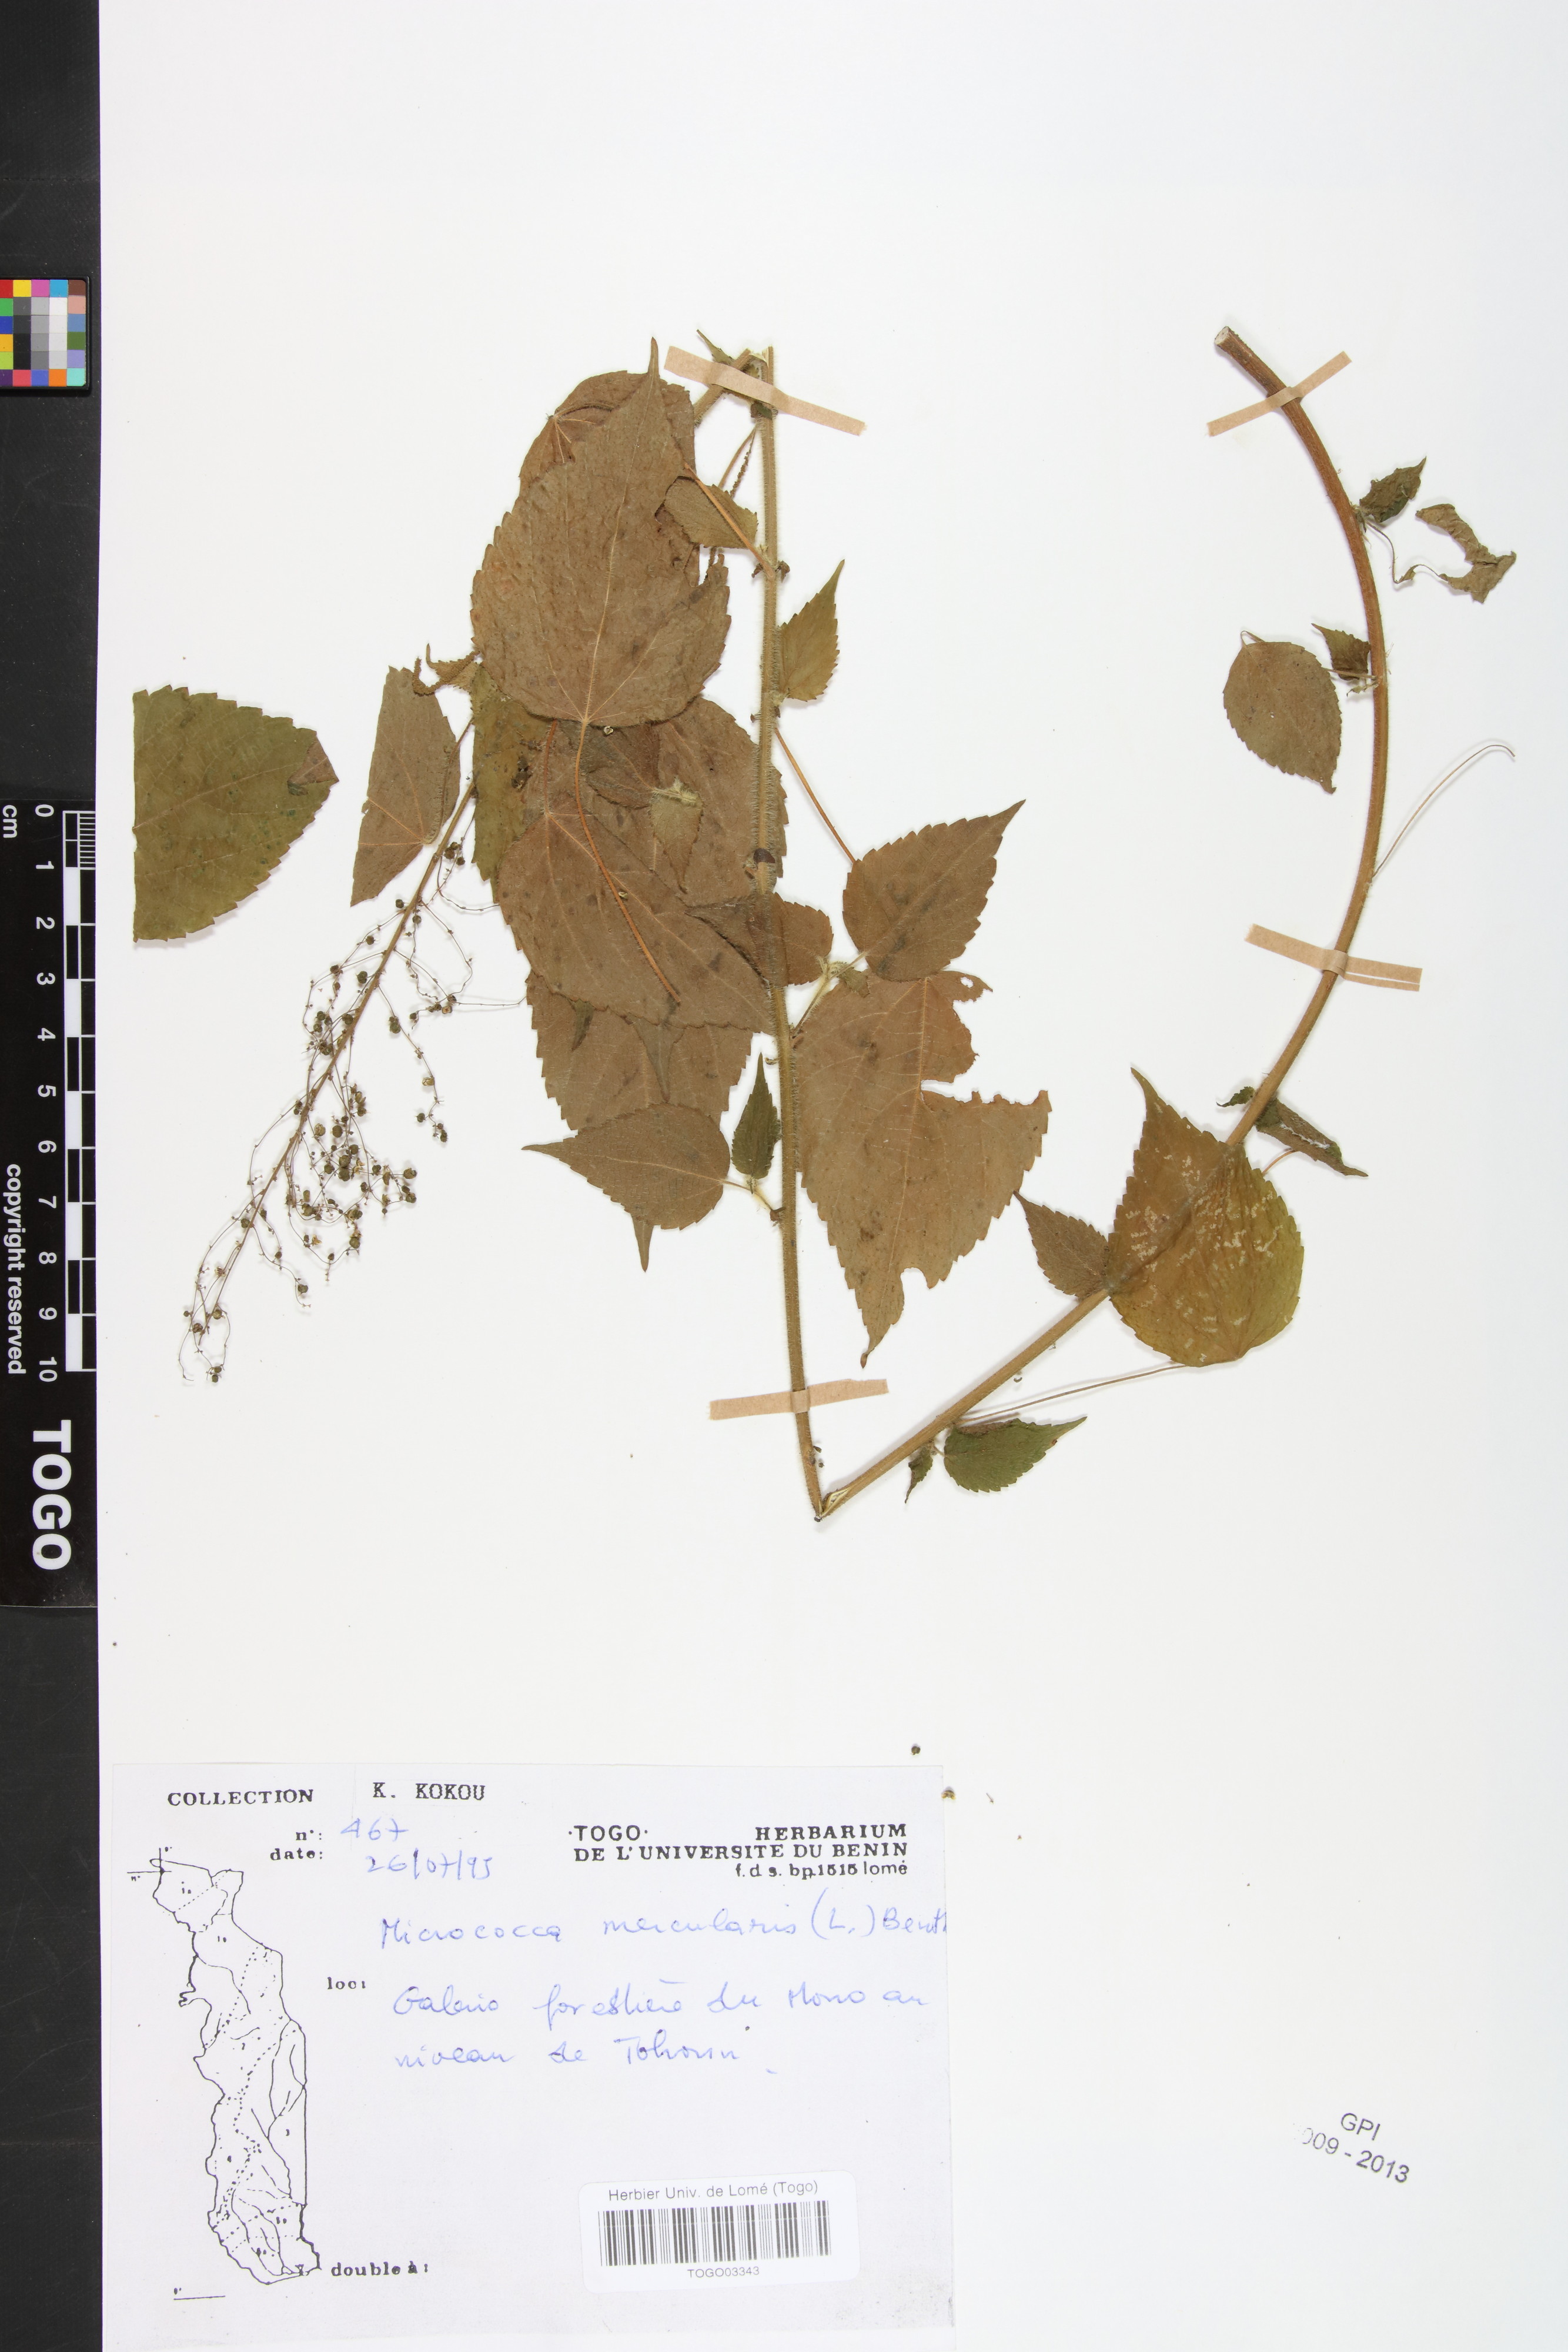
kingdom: Plantae
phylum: Tracheophyta
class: Magnoliopsida
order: Malpighiales
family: Euphorbiaceae
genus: Micrococca
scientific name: Micrococca mercurialis
